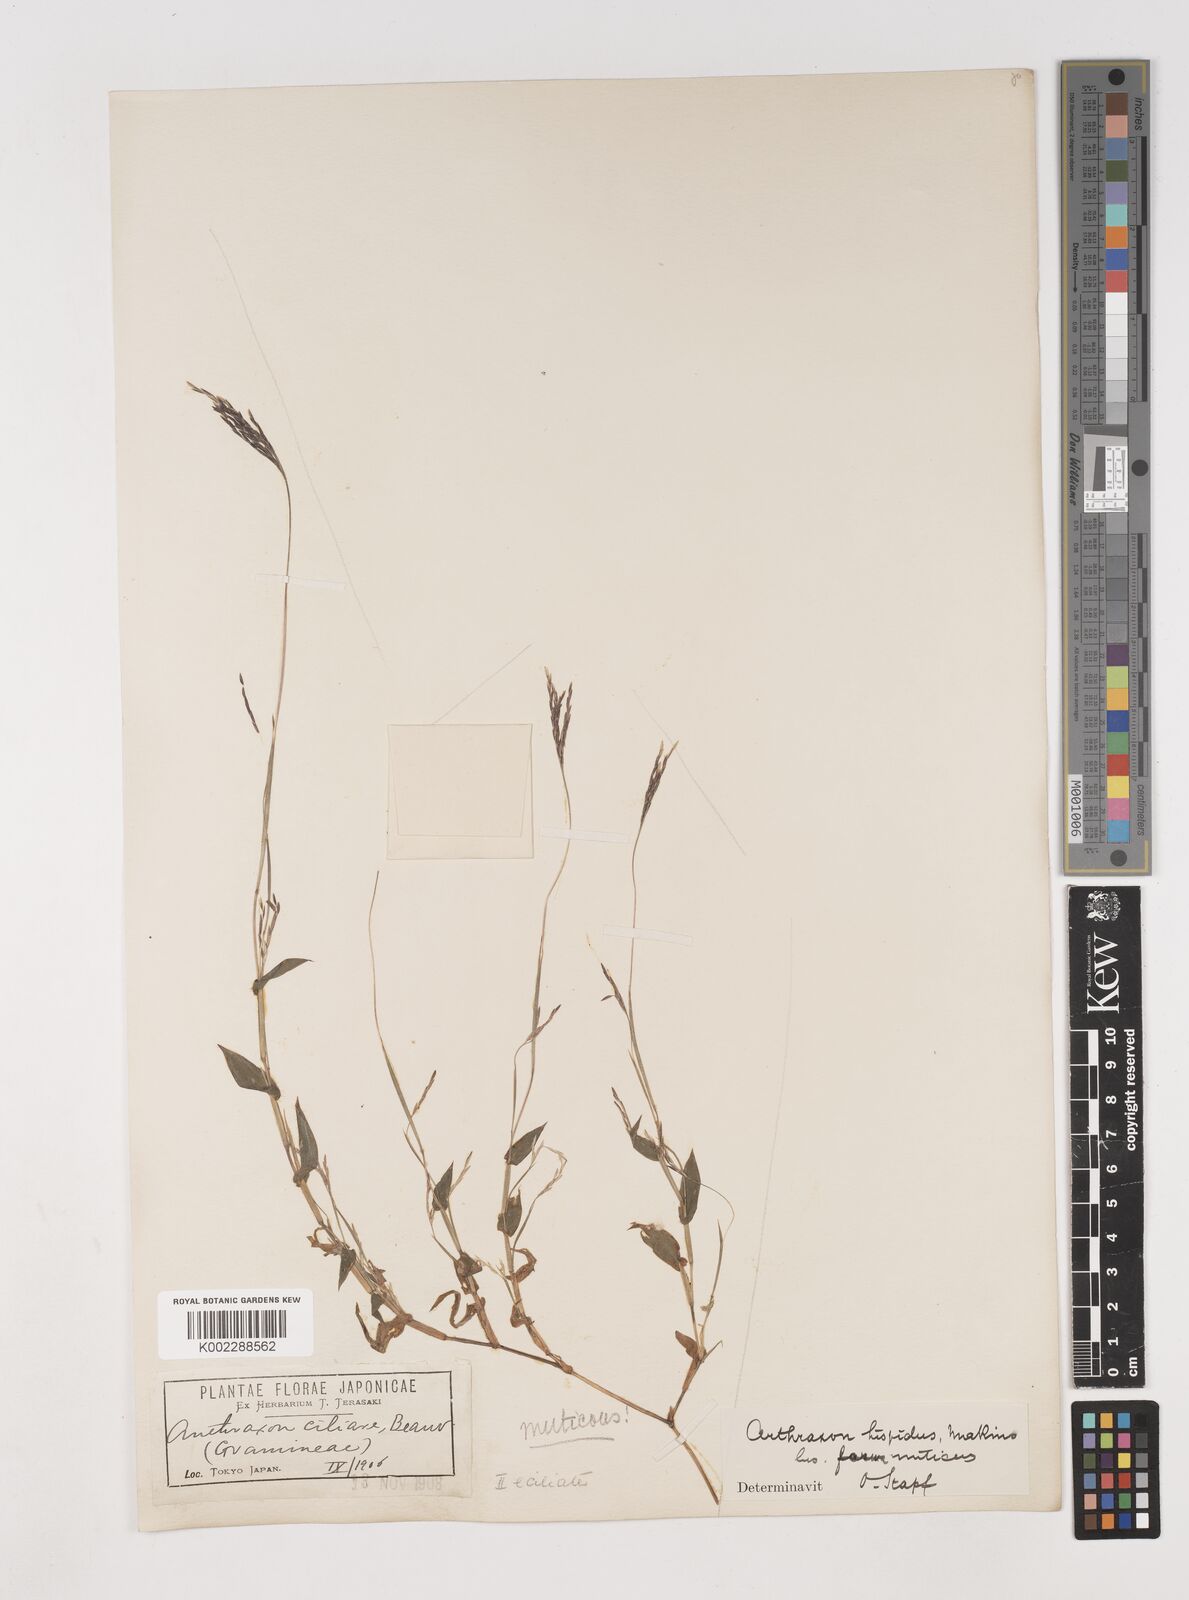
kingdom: Plantae
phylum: Tracheophyta
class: Liliopsida
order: Poales
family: Poaceae
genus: Arthraxon
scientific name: Arthraxon hispidus
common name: Small carpgrass
